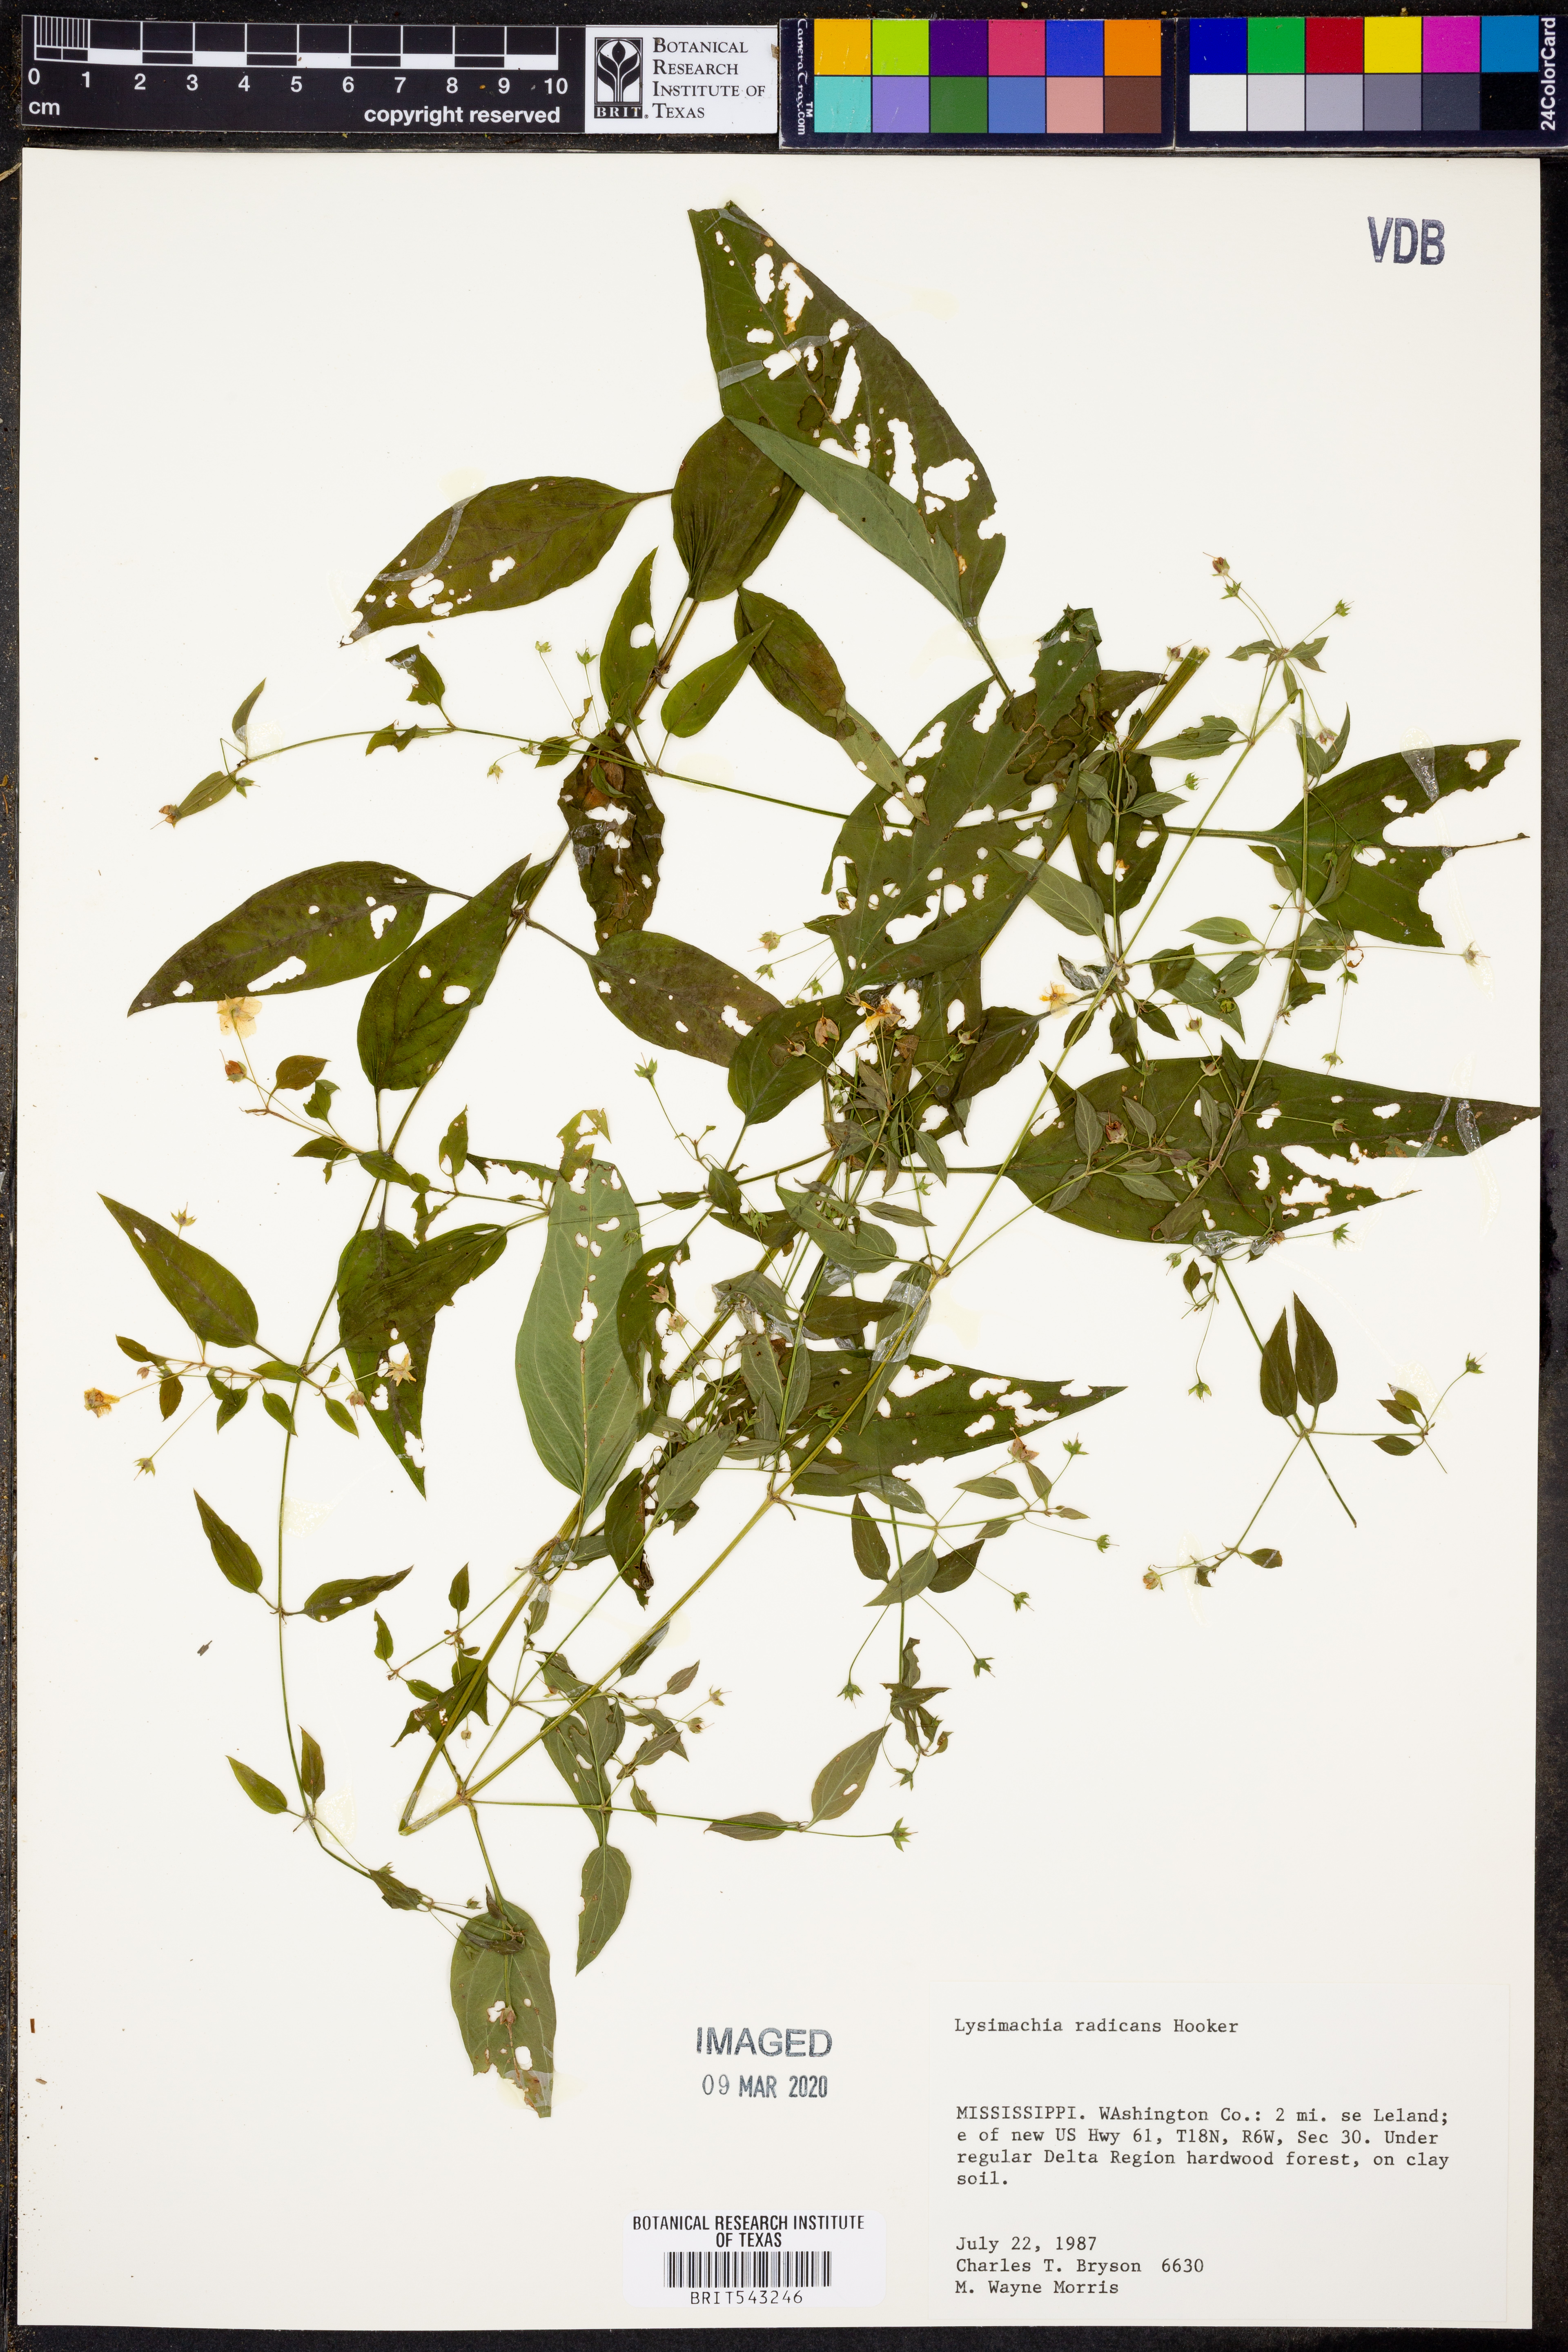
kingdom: Plantae
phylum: Tracheophyta
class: Magnoliopsida
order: Ericales
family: Primulaceae
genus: Lysimachia
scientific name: Lysimachia radicans
